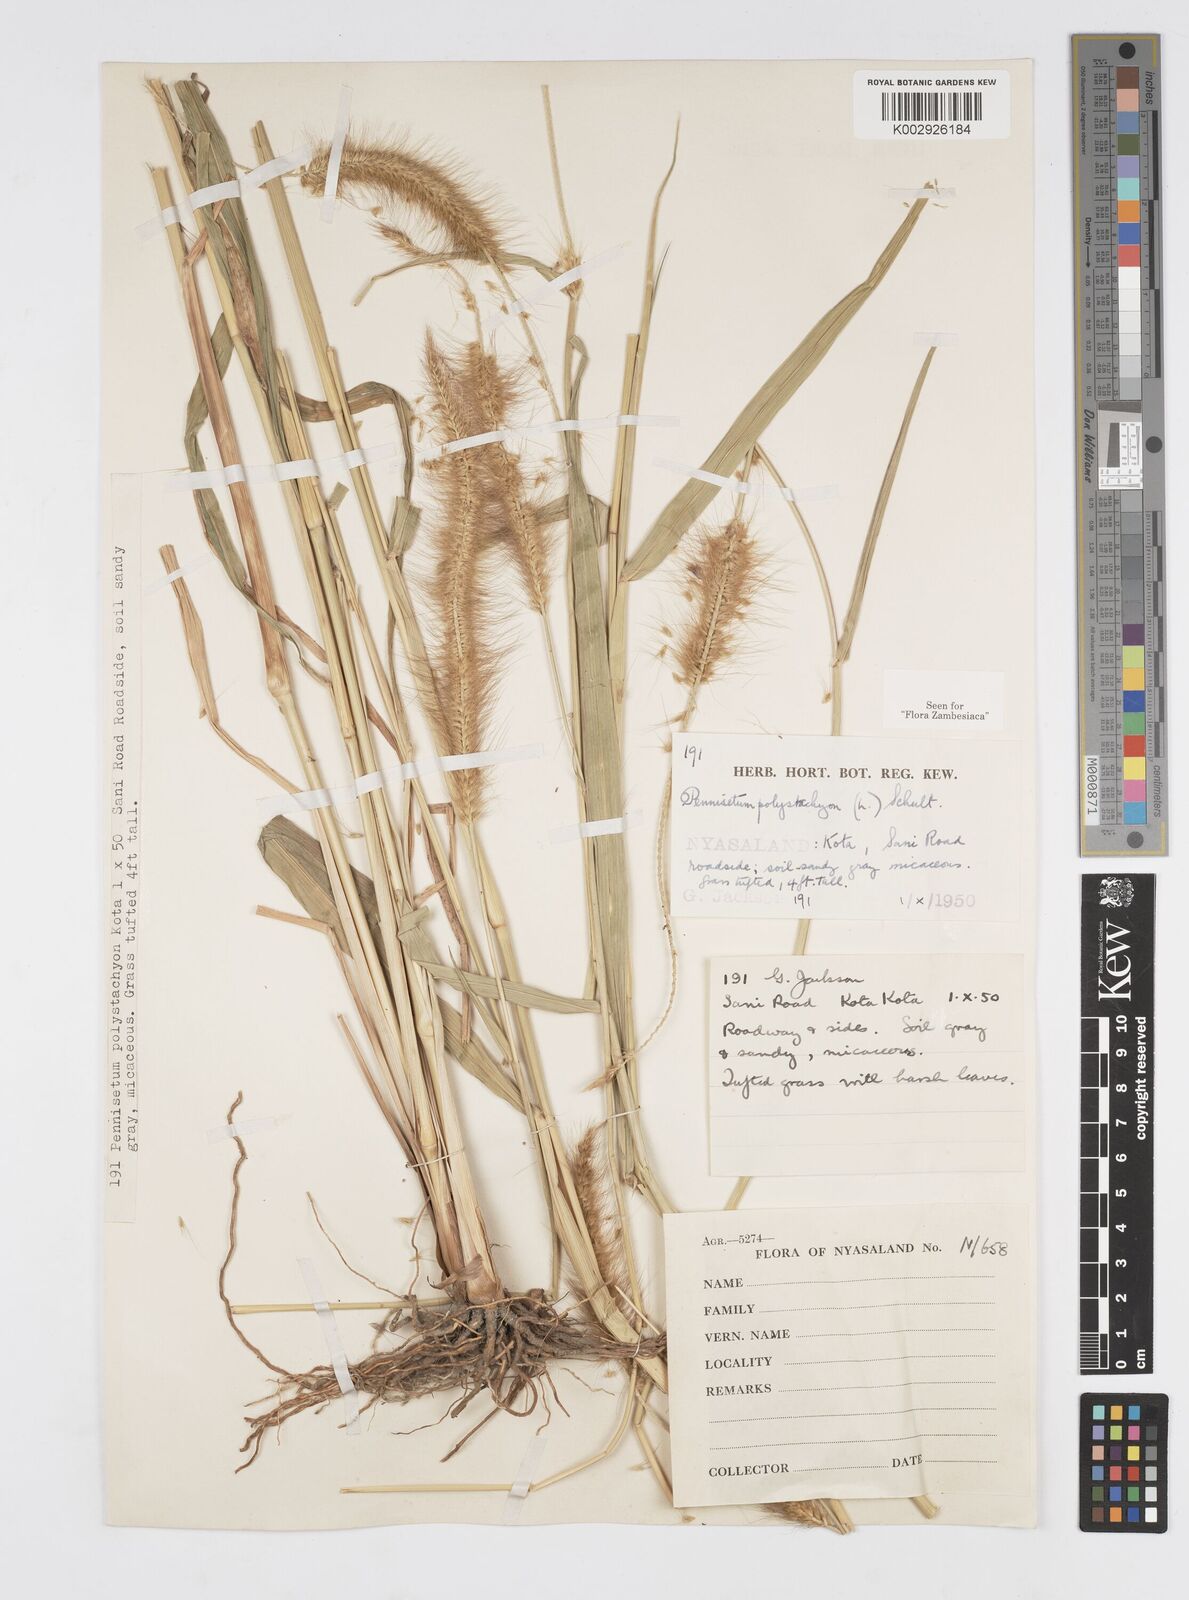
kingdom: Plantae
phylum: Tracheophyta
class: Liliopsida
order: Poales
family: Poaceae
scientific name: Poaceae
